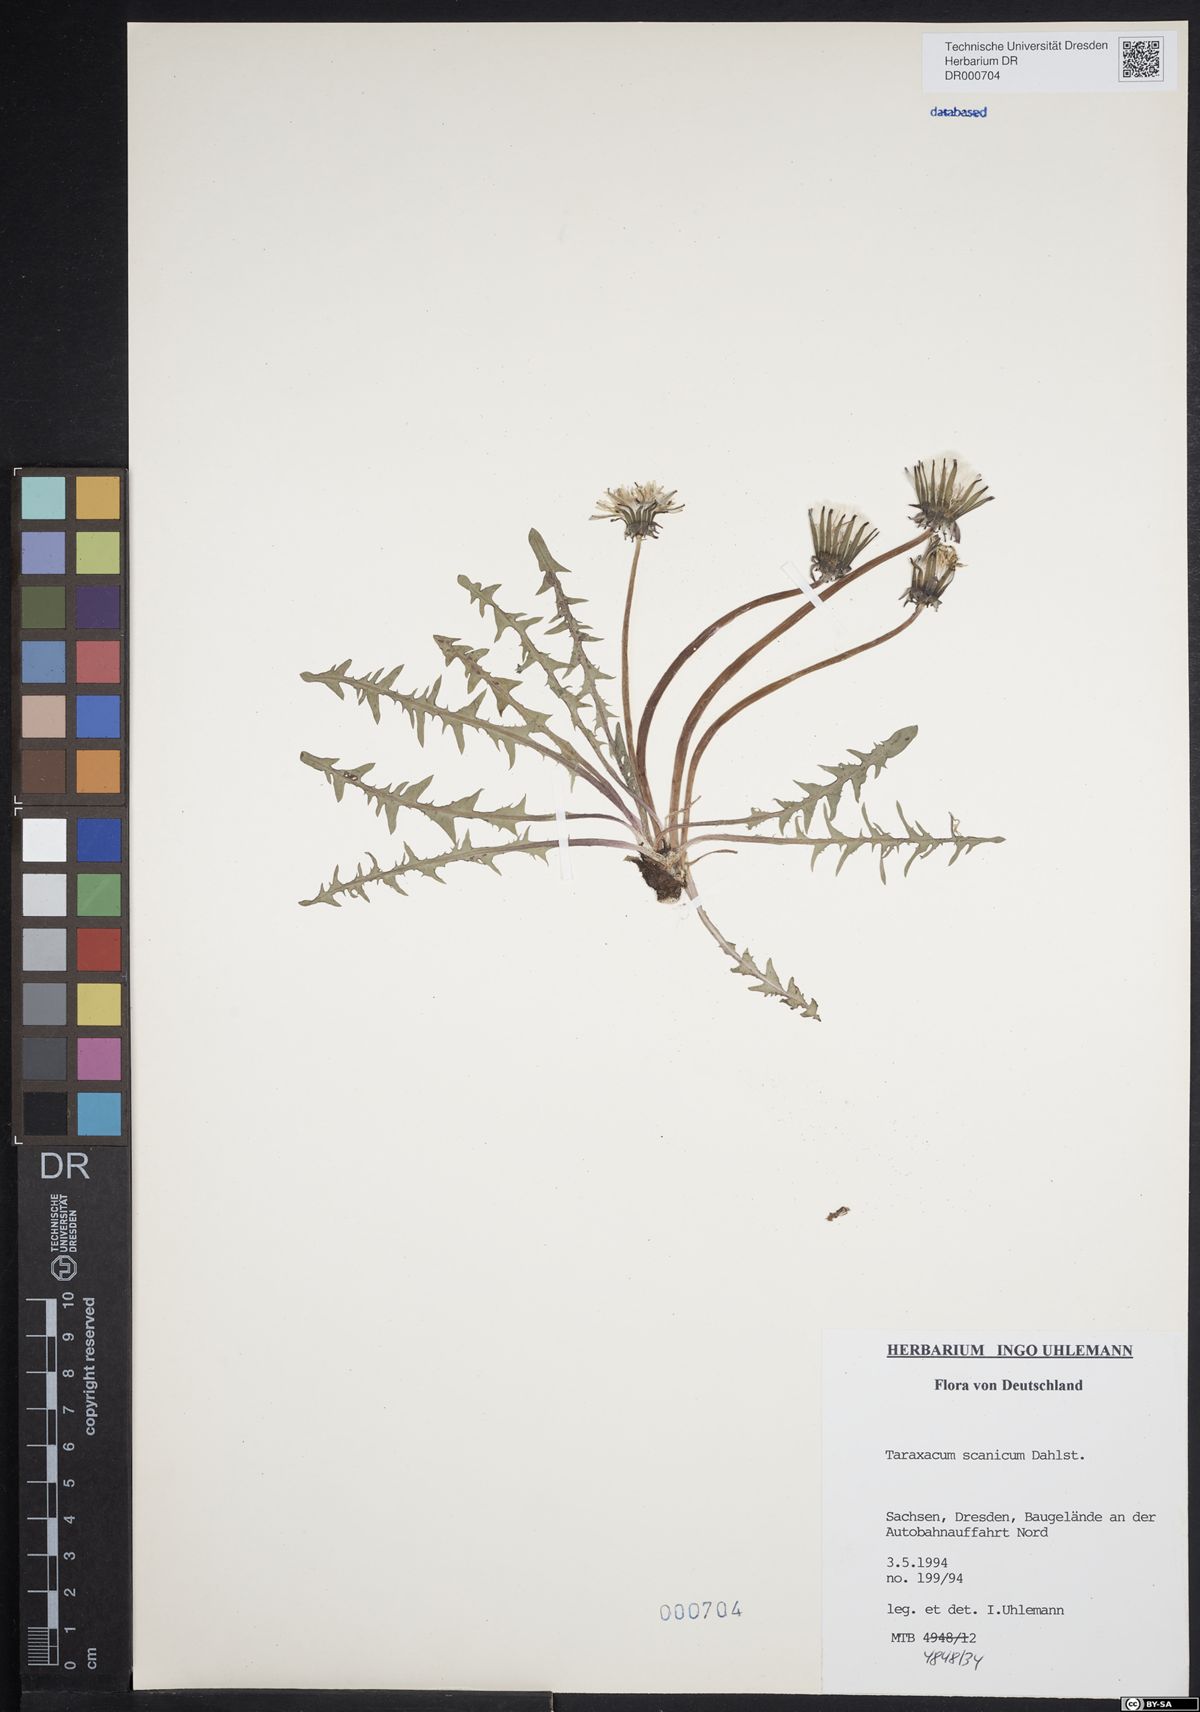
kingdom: Plantae
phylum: Tracheophyta
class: Magnoliopsida
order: Asterales
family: Asteraceae
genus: Taraxacum
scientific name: Taraxacum scanicum
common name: Skåne dandelion
